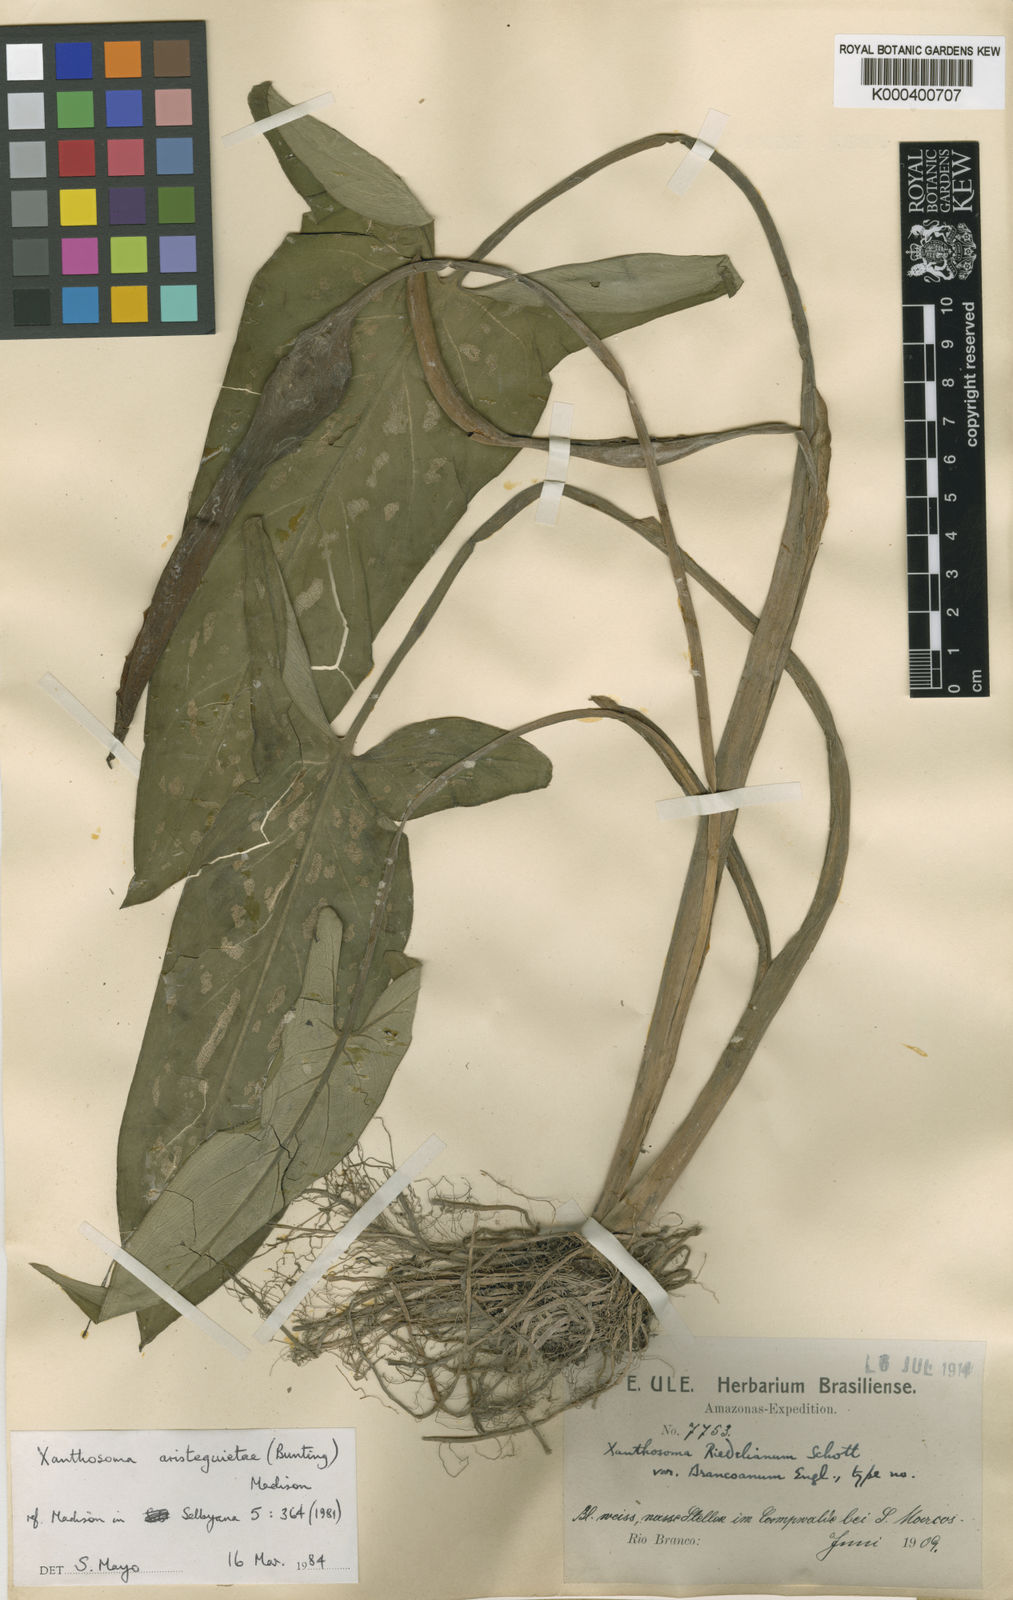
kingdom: Plantae
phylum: Tracheophyta
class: Liliopsida
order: Alismatales
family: Araceae
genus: Xanthosoma
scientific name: Xanthosoma aristeguietae
